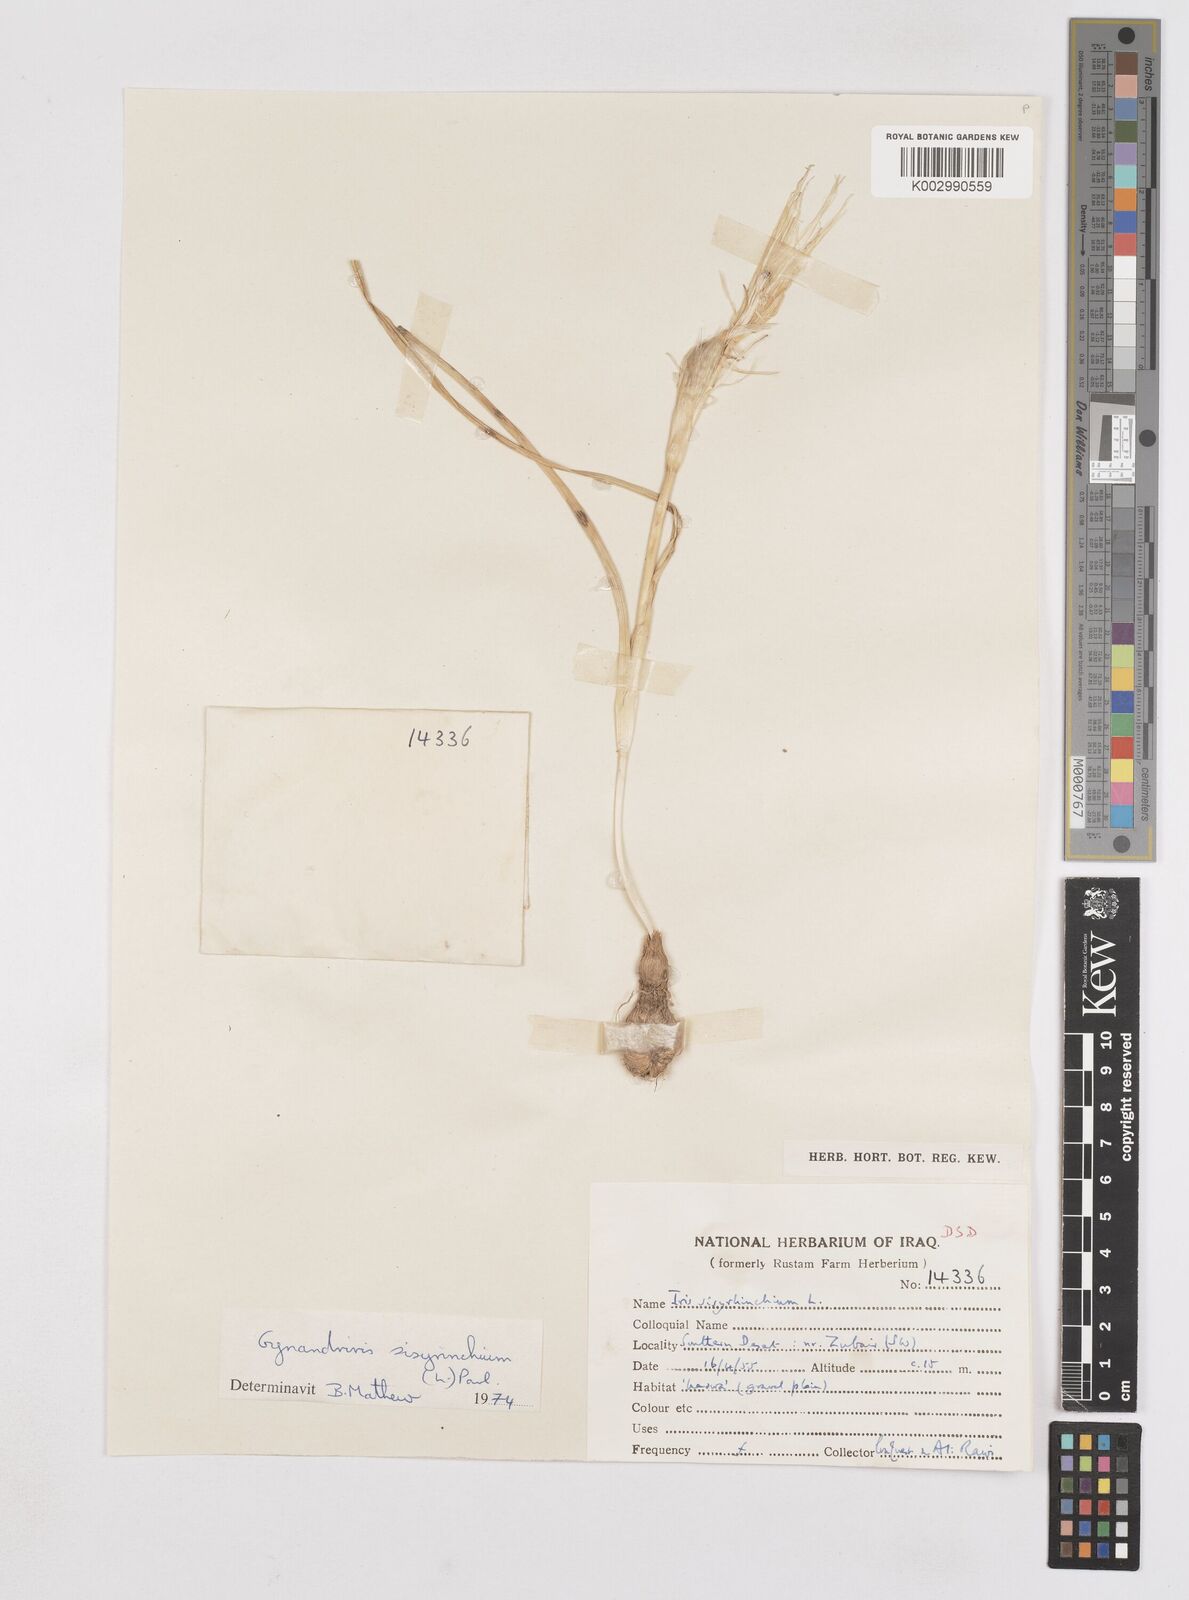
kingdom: Plantae
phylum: Tracheophyta
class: Liliopsida
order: Asparagales
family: Iridaceae
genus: Moraea
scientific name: Moraea sisyrinchium
